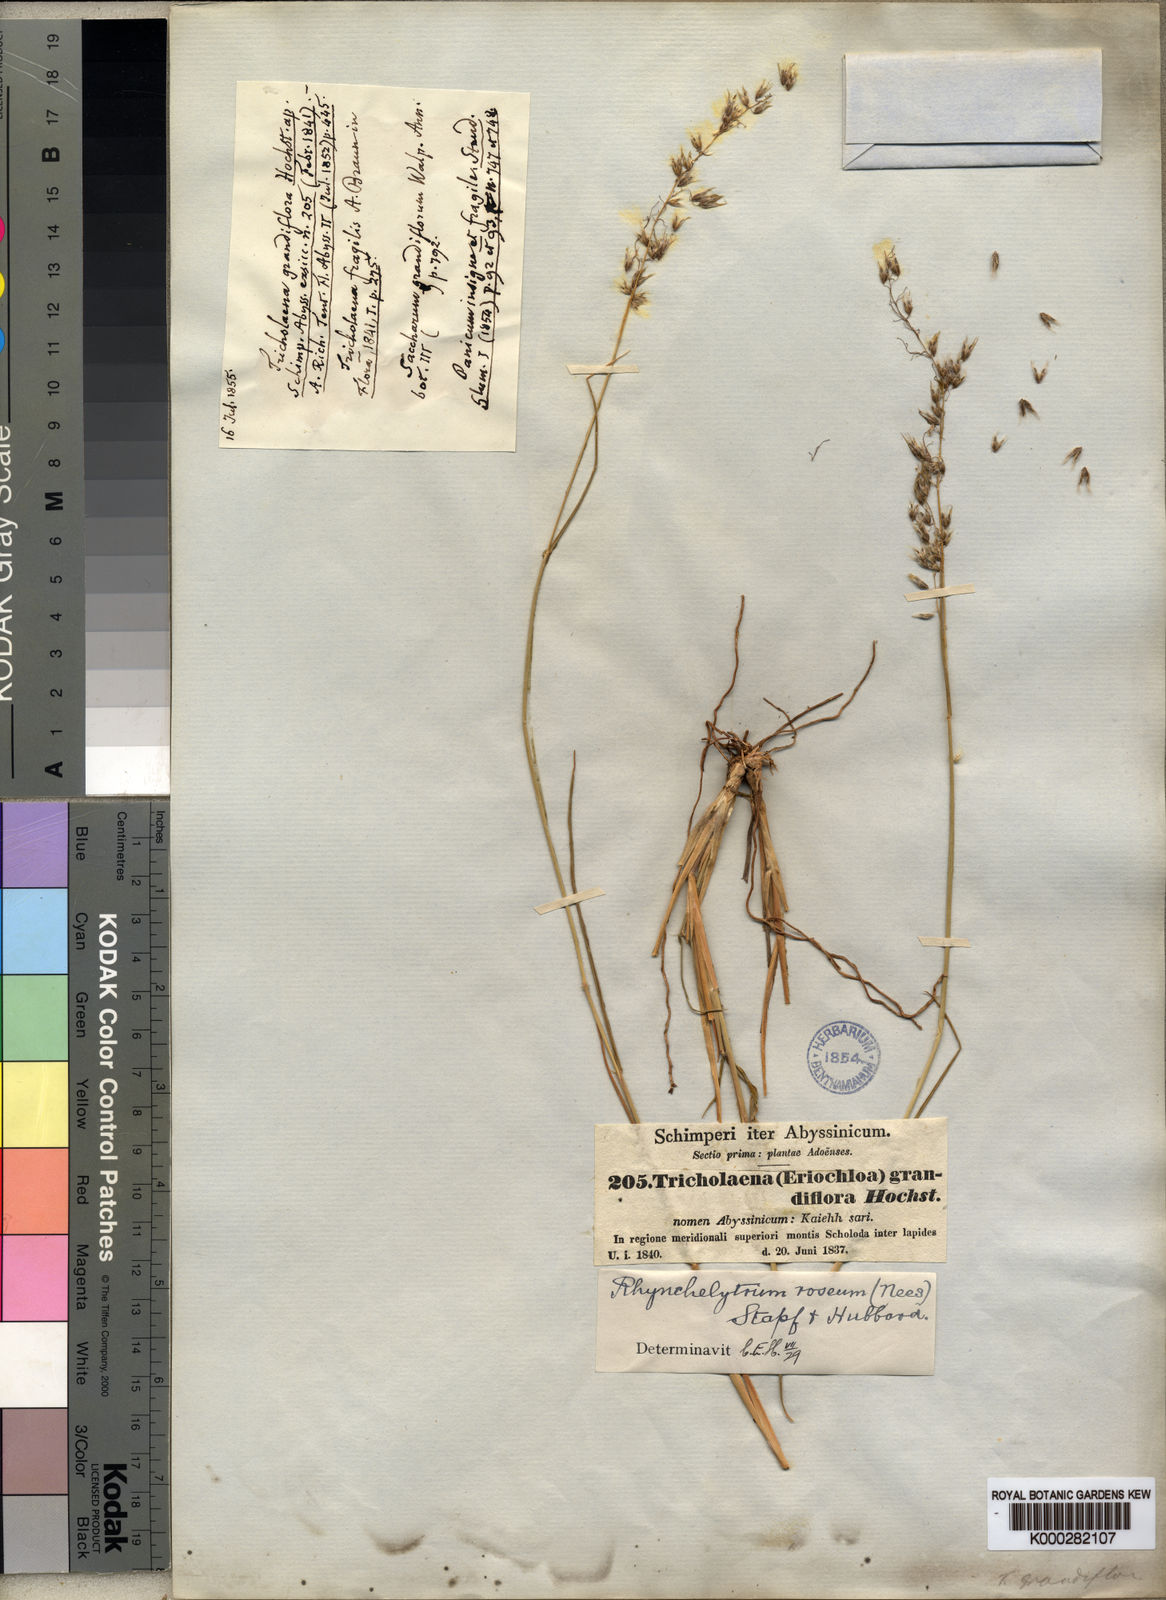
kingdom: Plantae
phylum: Tracheophyta
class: Liliopsida
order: Poales
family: Poaceae
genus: Melinis
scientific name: Melinis repens
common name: Rose natal grass
